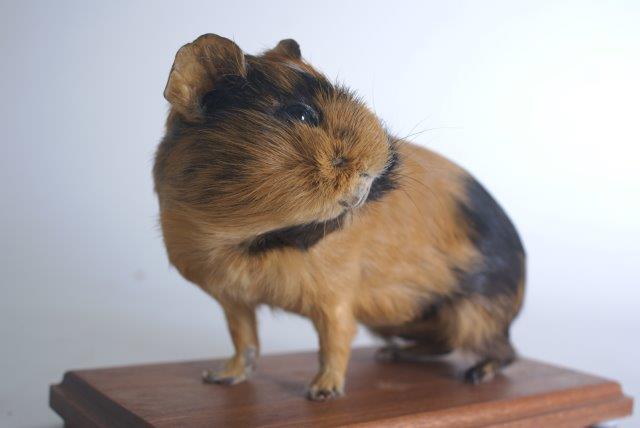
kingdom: Animalia
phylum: Chordata
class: Mammalia
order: Rodentia
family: Caviidae
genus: Cavia
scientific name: Cavia aperea
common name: Brazilian Guinea Pig
